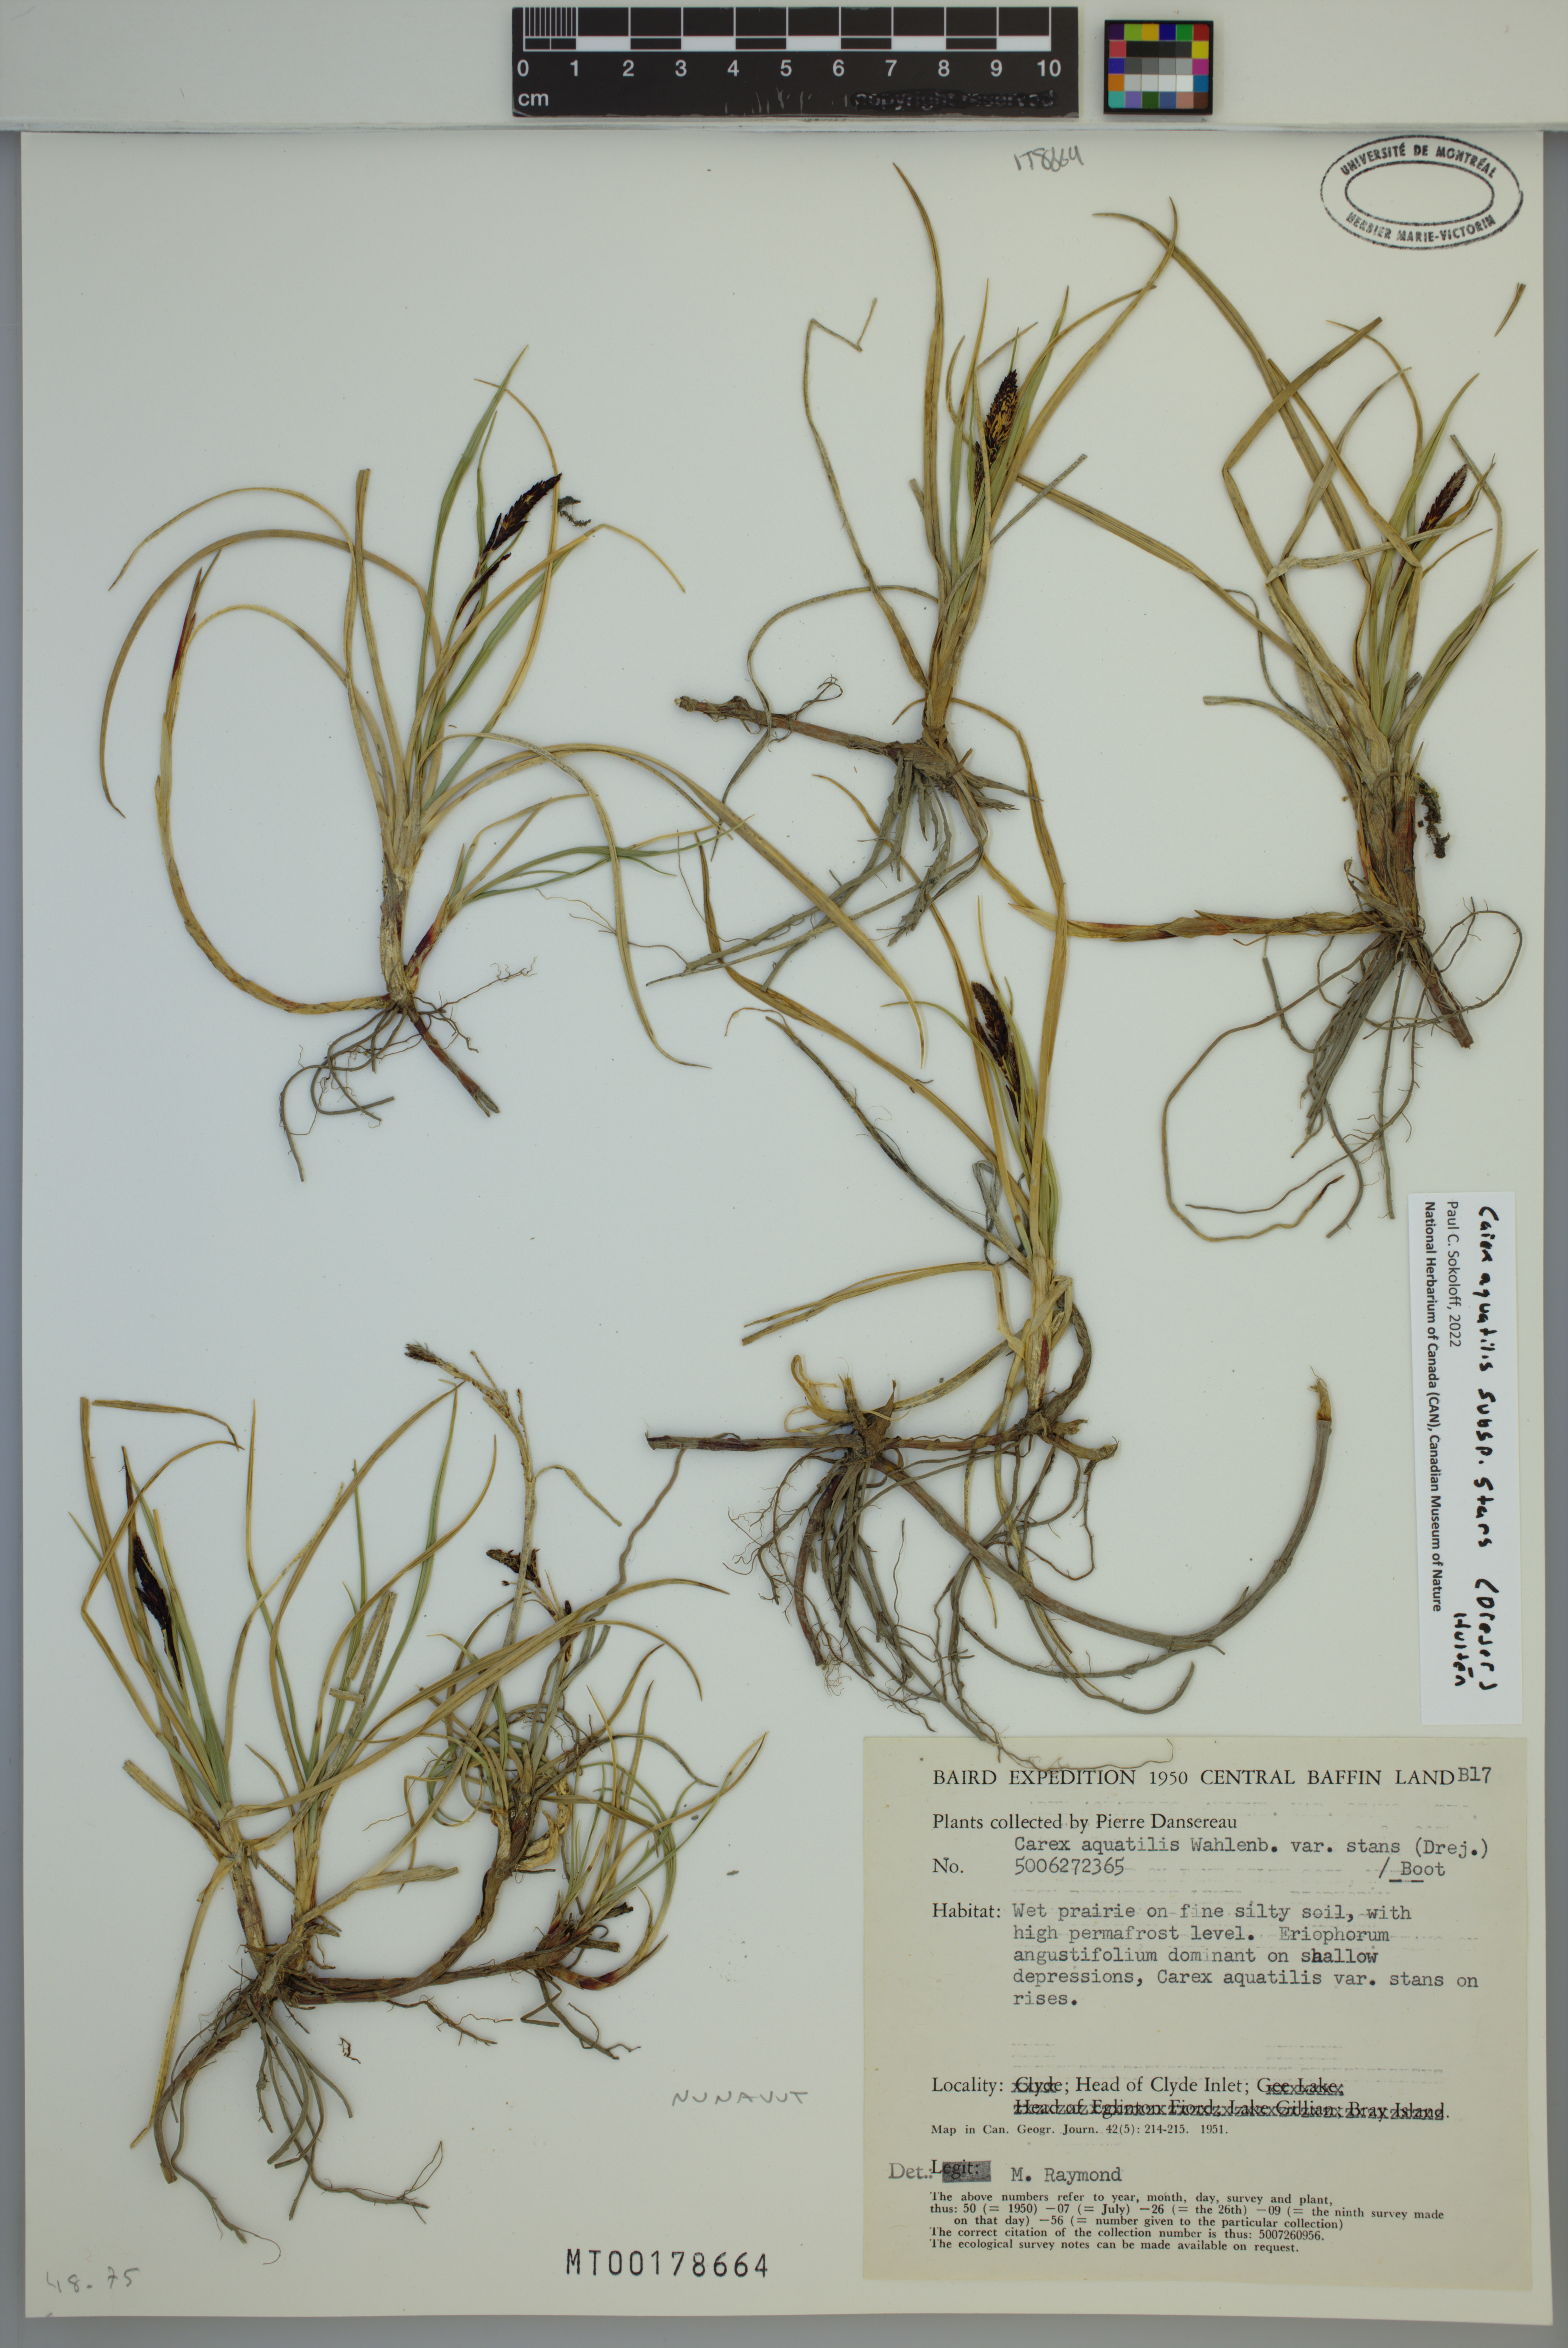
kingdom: Plantae
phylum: Tracheophyta
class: Liliopsida
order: Poales
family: Cyperaceae
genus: Carex
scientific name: Carex aquatilis
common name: Water sedge
